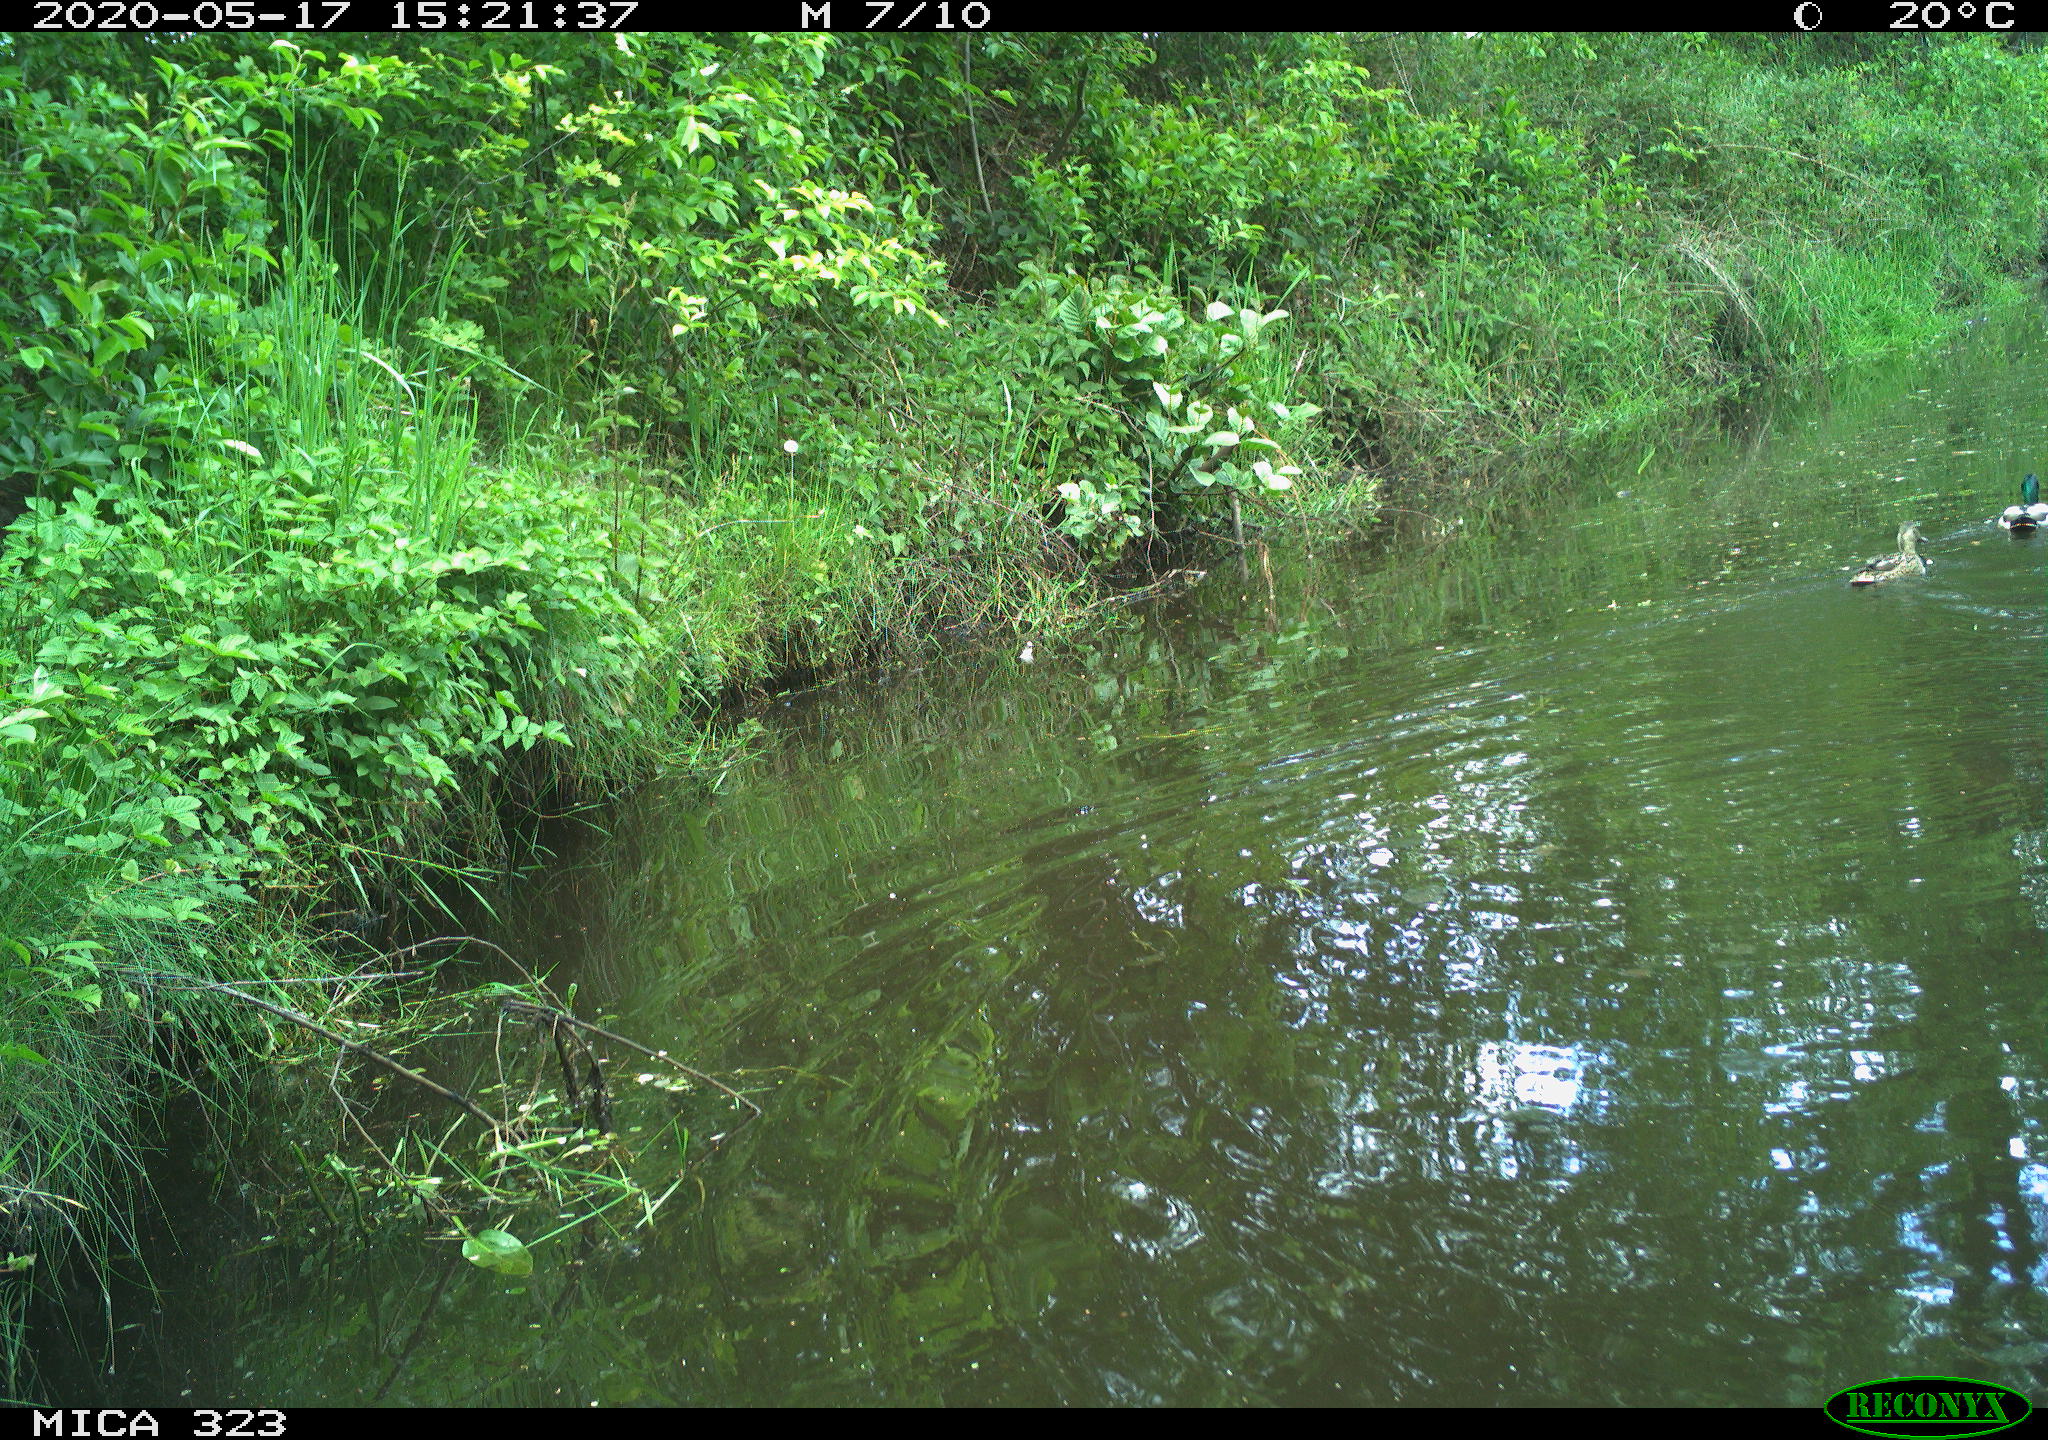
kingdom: Animalia
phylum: Chordata
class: Aves
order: Anseriformes
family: Anatidae
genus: Anas
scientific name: Anas platyrhynchos
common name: Mallard
